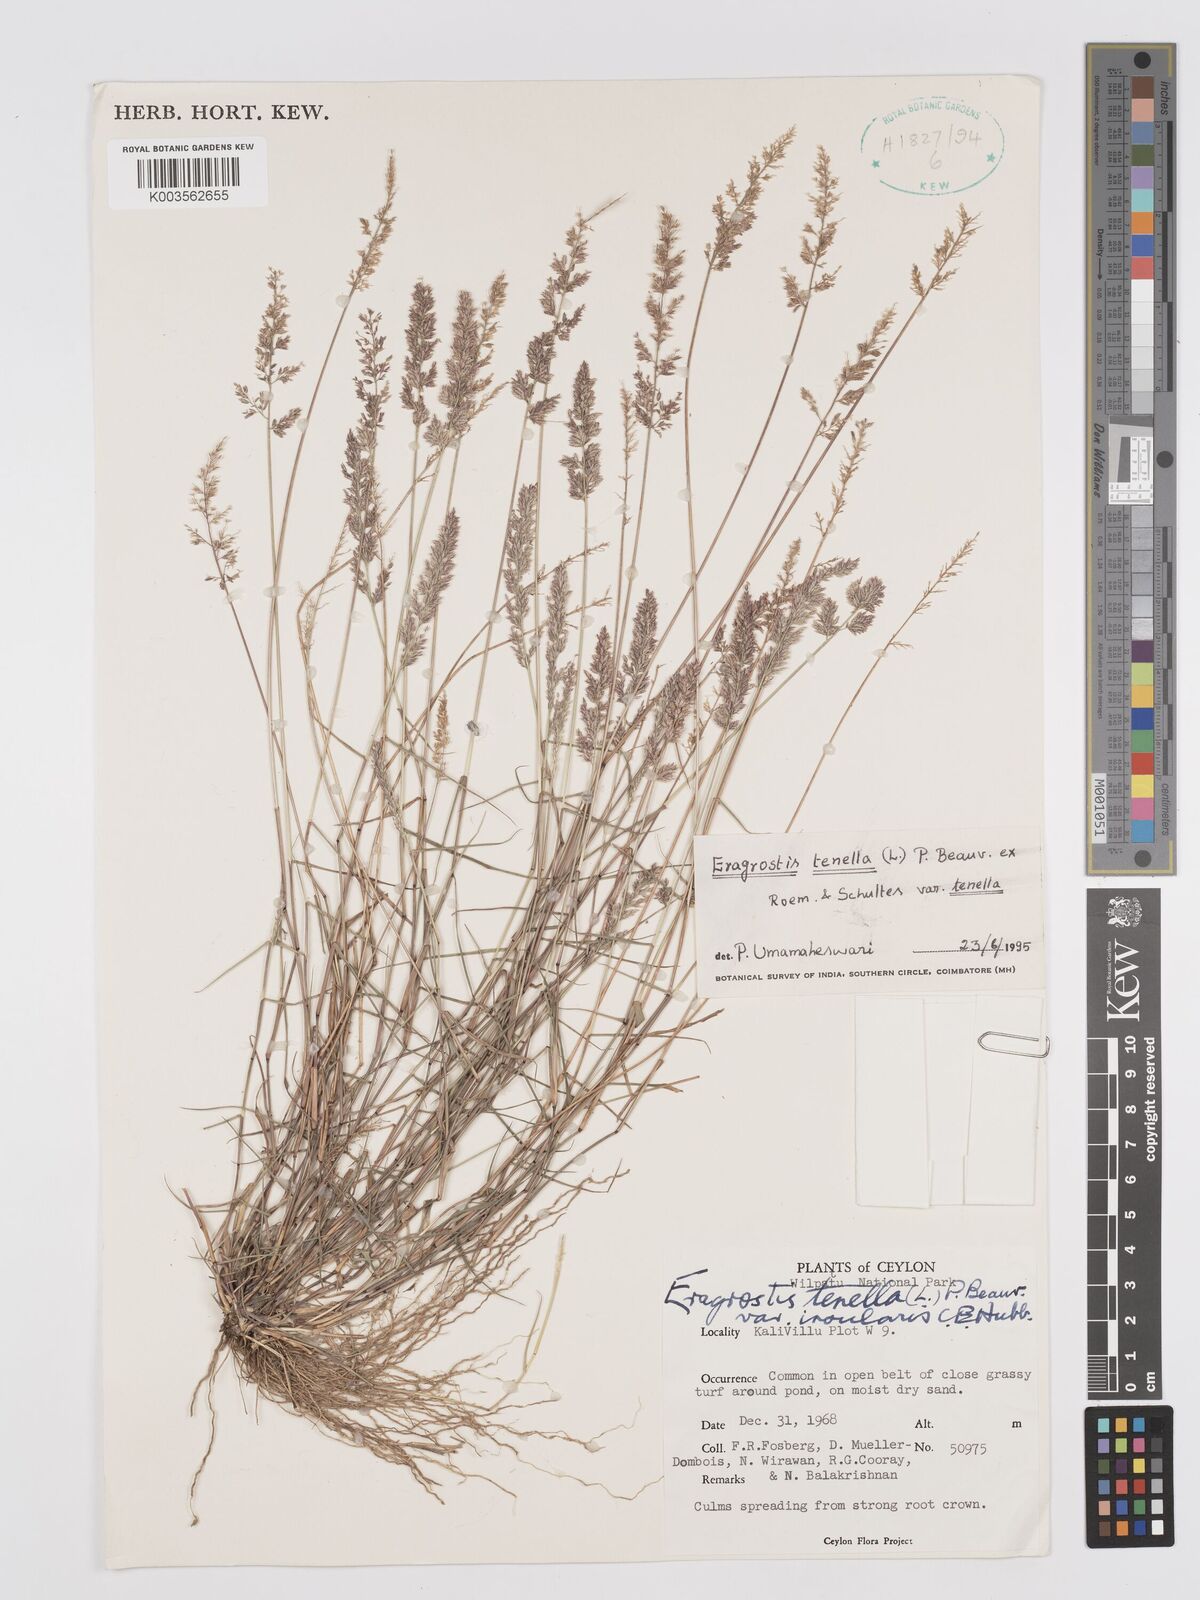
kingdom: Plantae
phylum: Tracheophyta
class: Liliopsida
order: Poales
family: Poaceae
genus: Eragrostis
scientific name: Eragrostis tenella
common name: Japanese lovegrass
